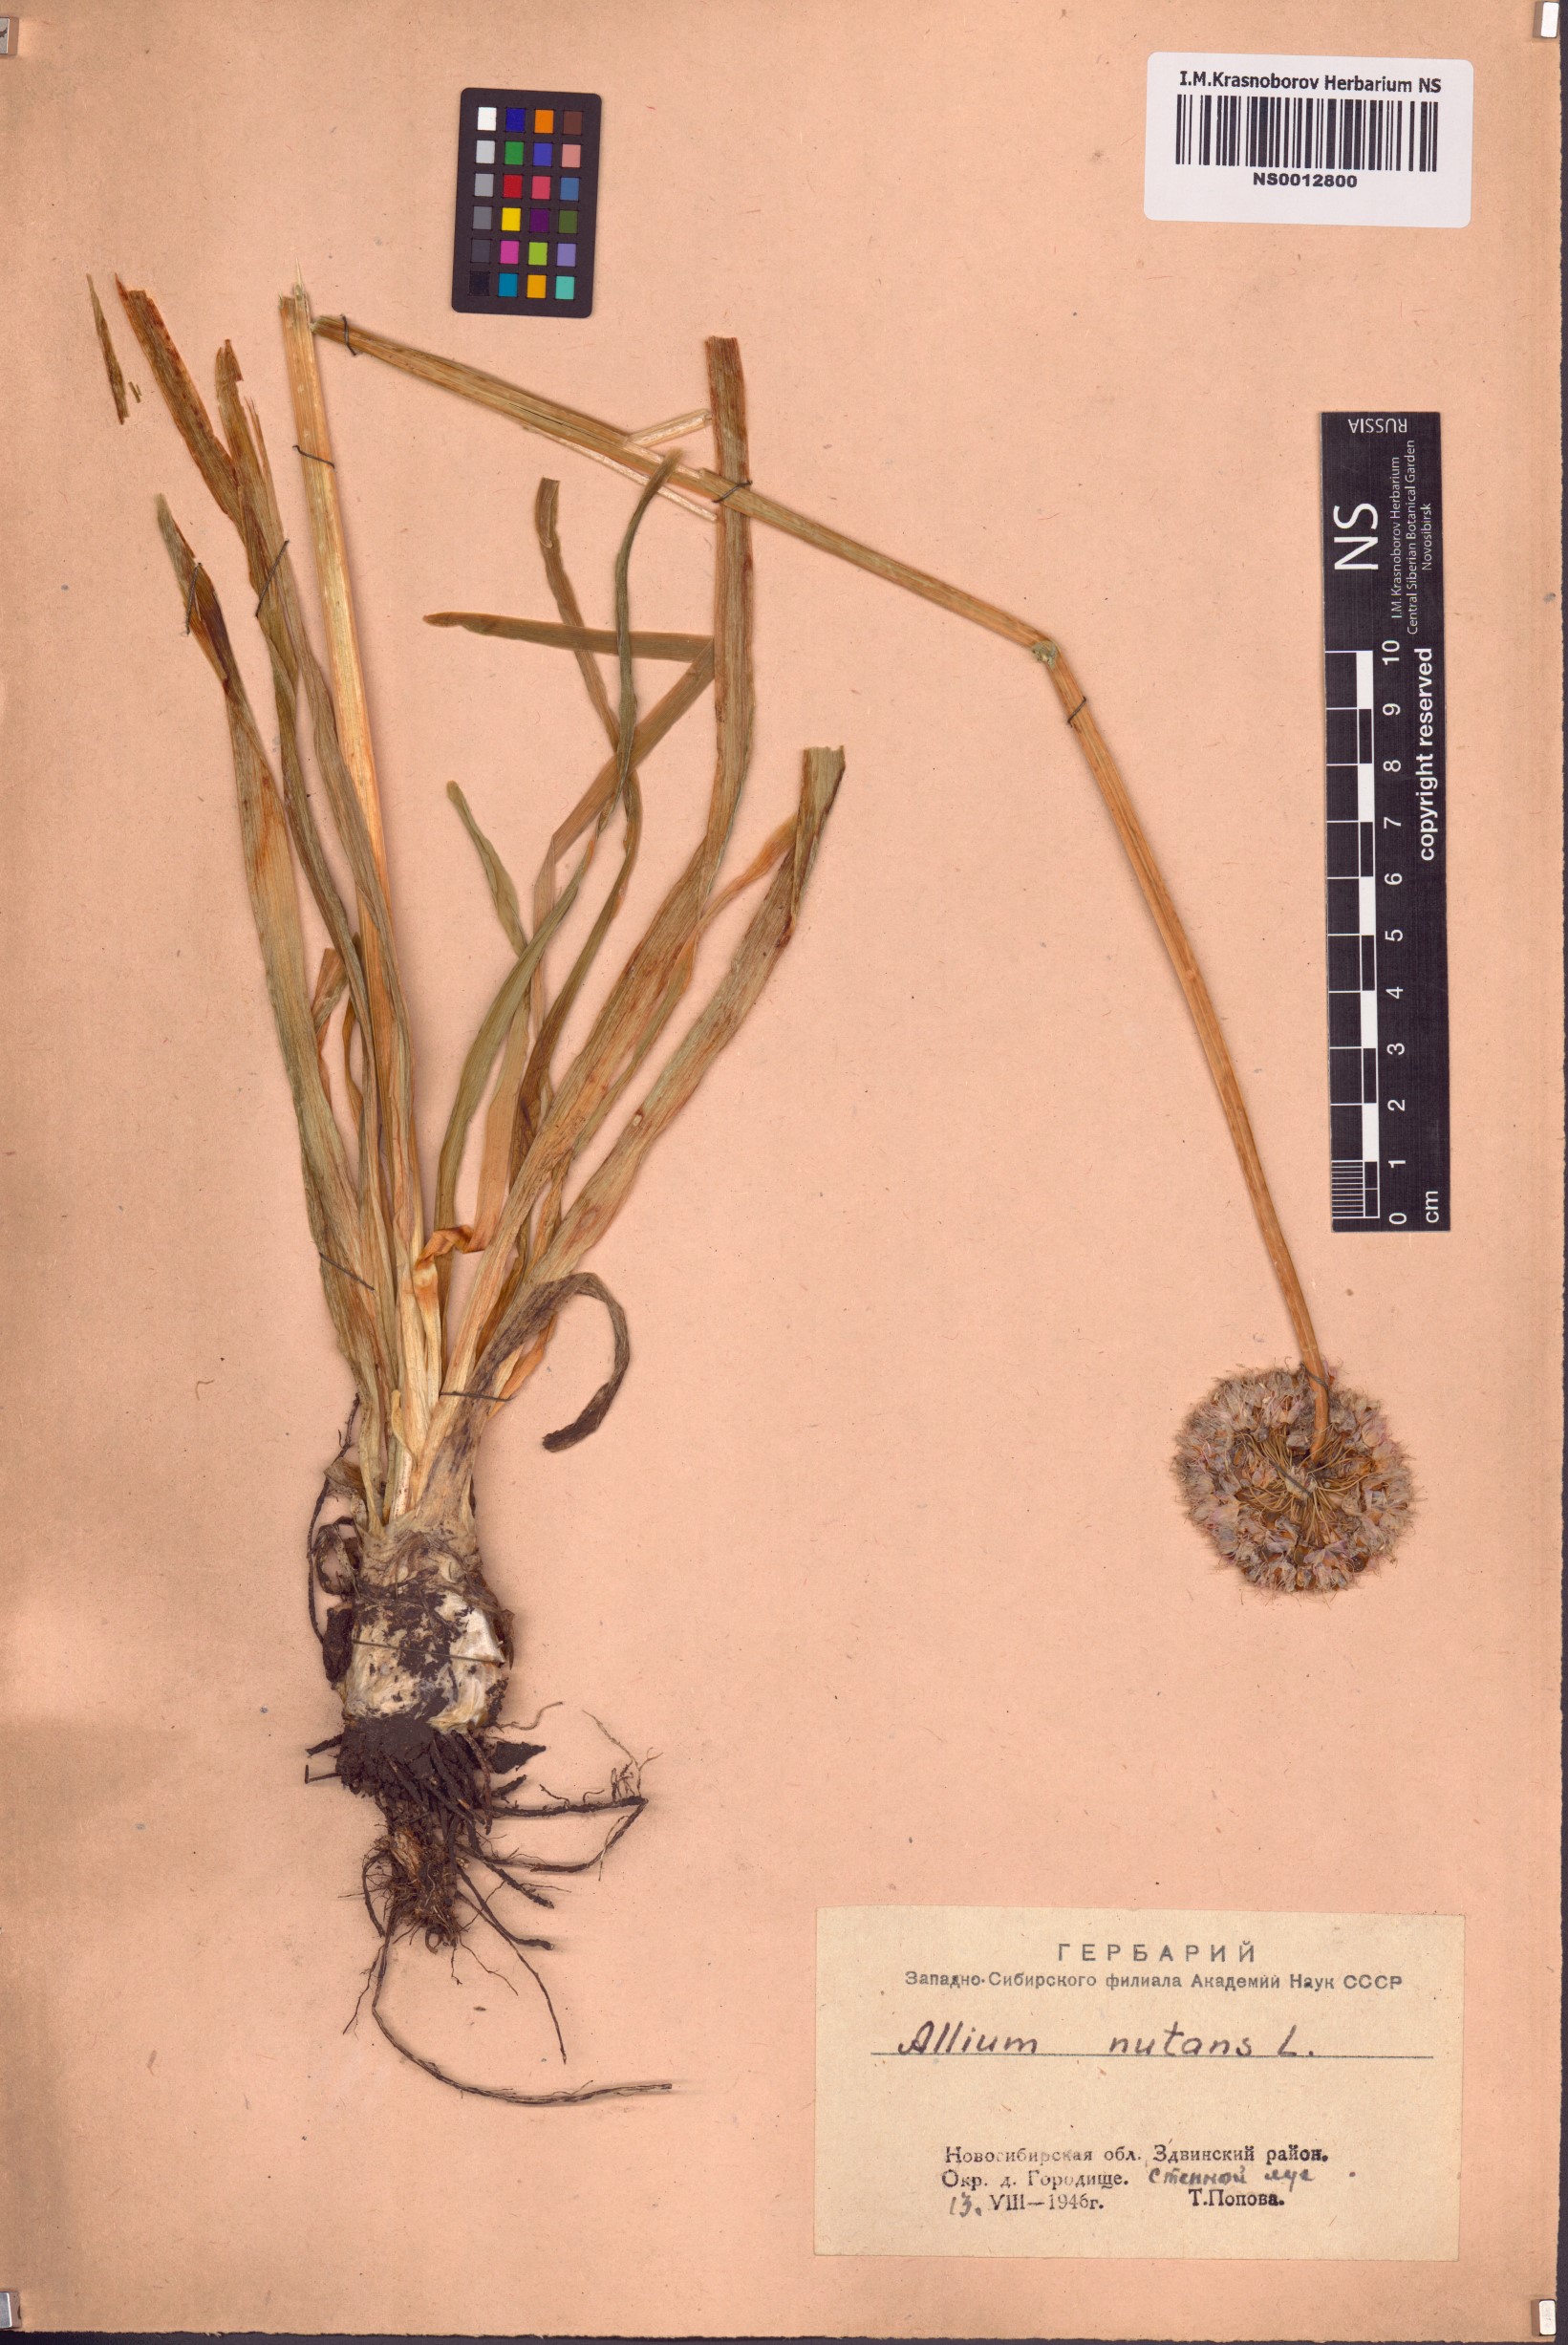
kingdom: Plantae
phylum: Tracheophyta
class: Liliopsida
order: Asparagales
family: Amaryllidaceae
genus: Allium
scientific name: Allium nutans
